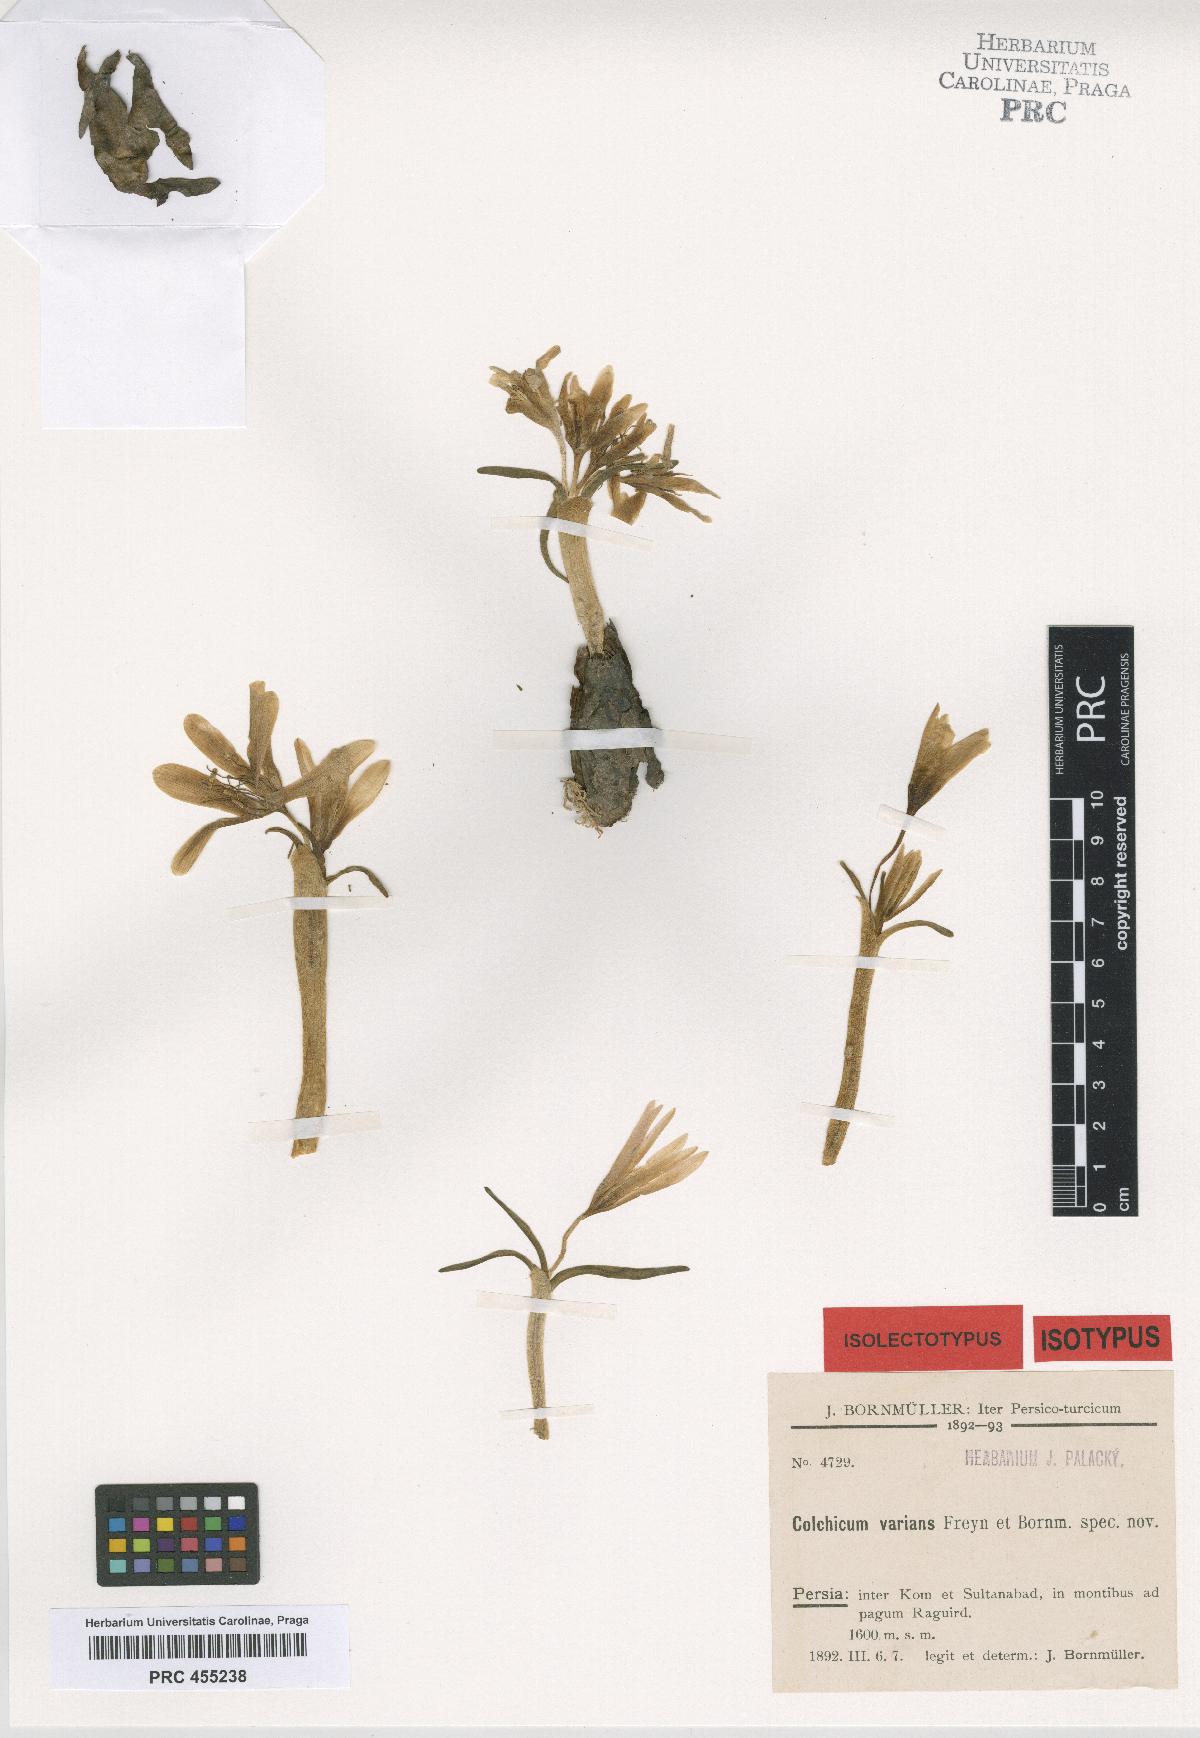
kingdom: Plantae
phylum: Tracheophyta
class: Liliopsida
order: Liliales
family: Colchicaceae
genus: Colchicum
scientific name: Colchicum varians
